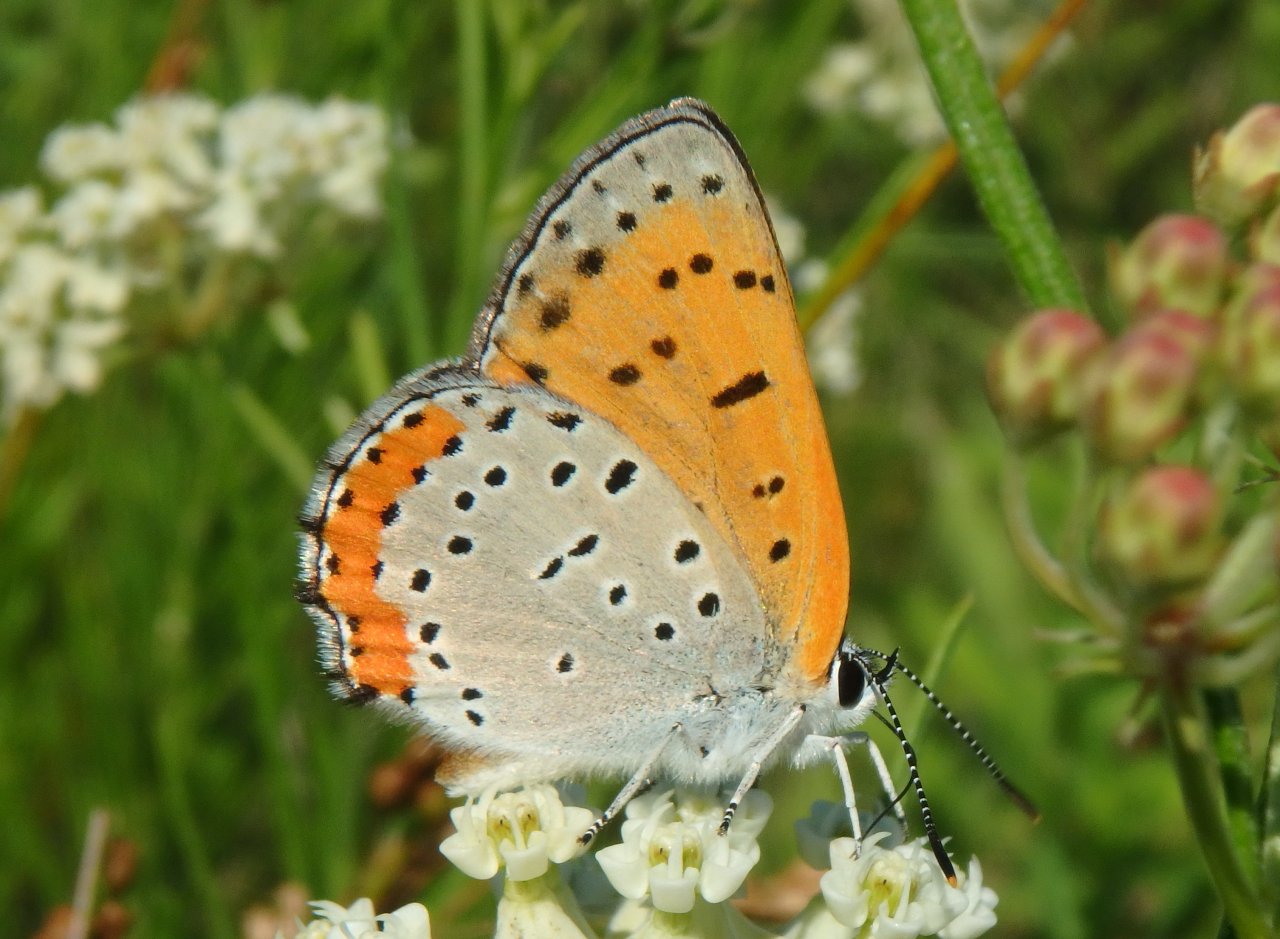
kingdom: Animalia
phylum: Arthropoda
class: Insecta
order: Lepidoptera
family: Sesiidae
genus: Sesia
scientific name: Sesia Lycaena hyllus
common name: Bronze Copper
